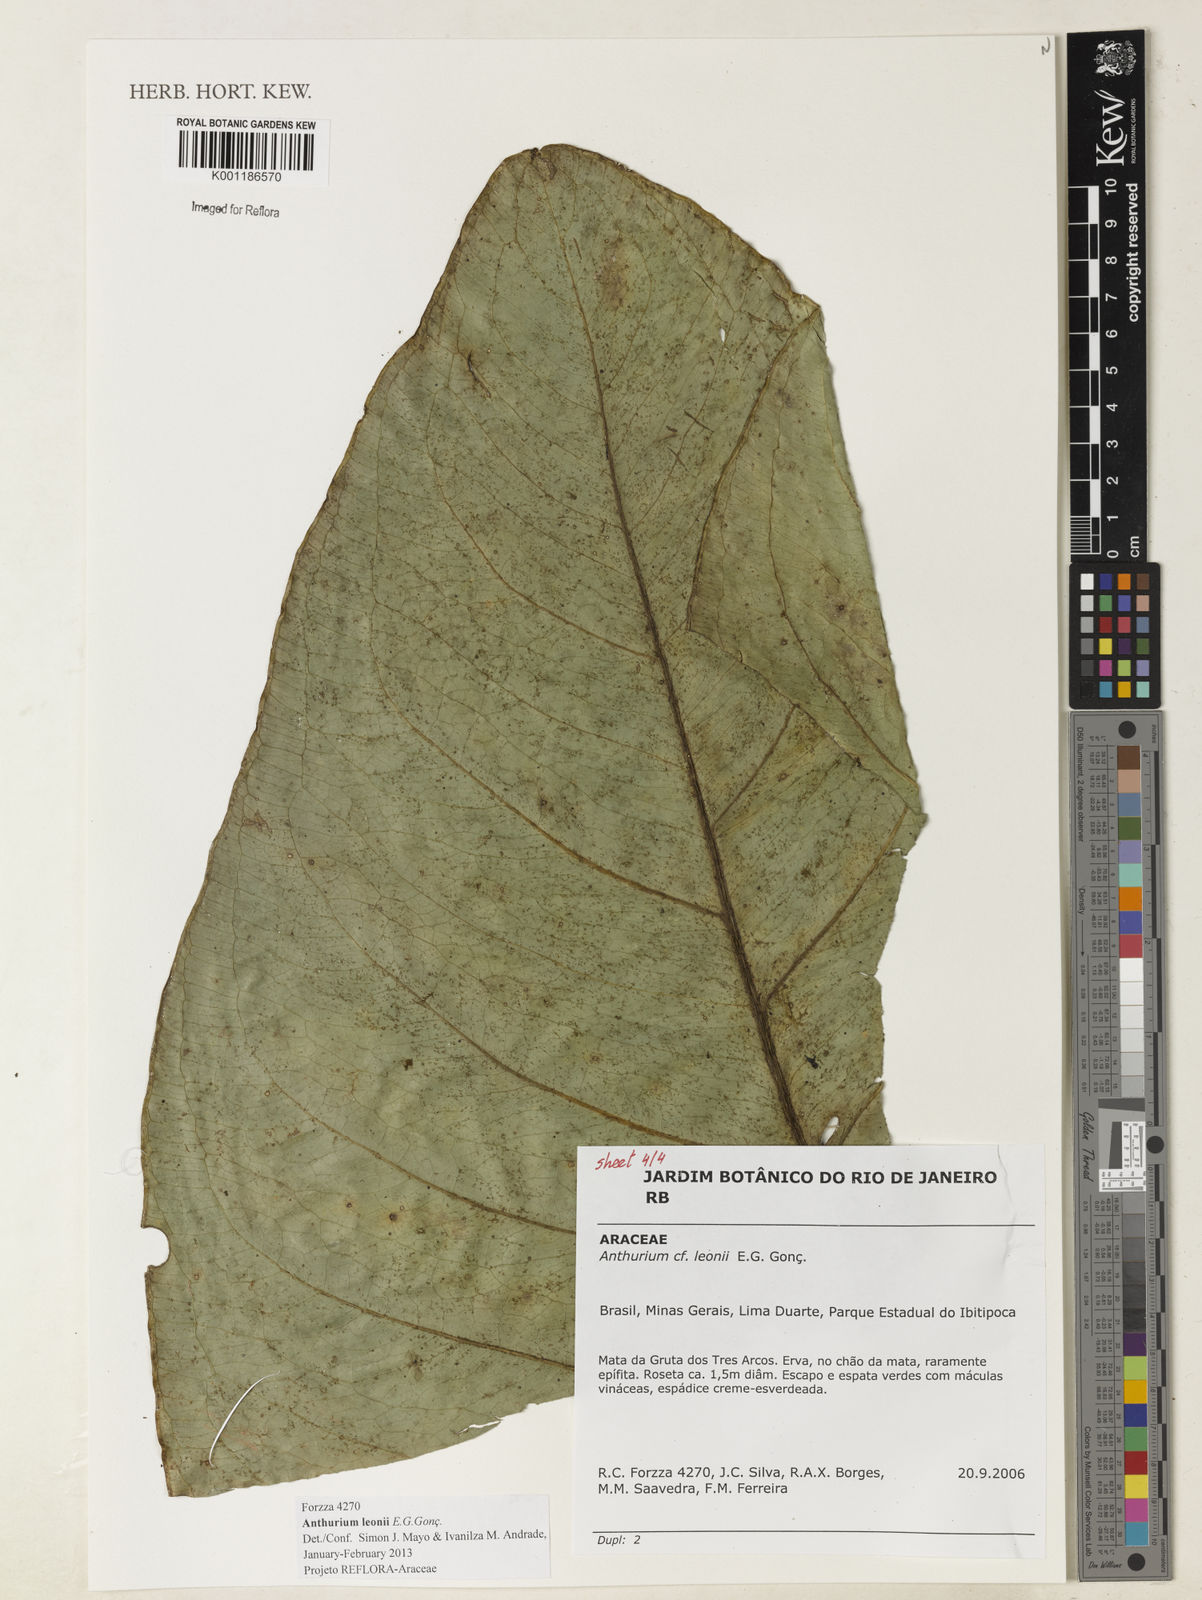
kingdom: Plantae
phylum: Tracheophyta
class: Liliopsida
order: Alismatales
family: Araceae
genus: Anthurium
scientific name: Anthurium leonii
